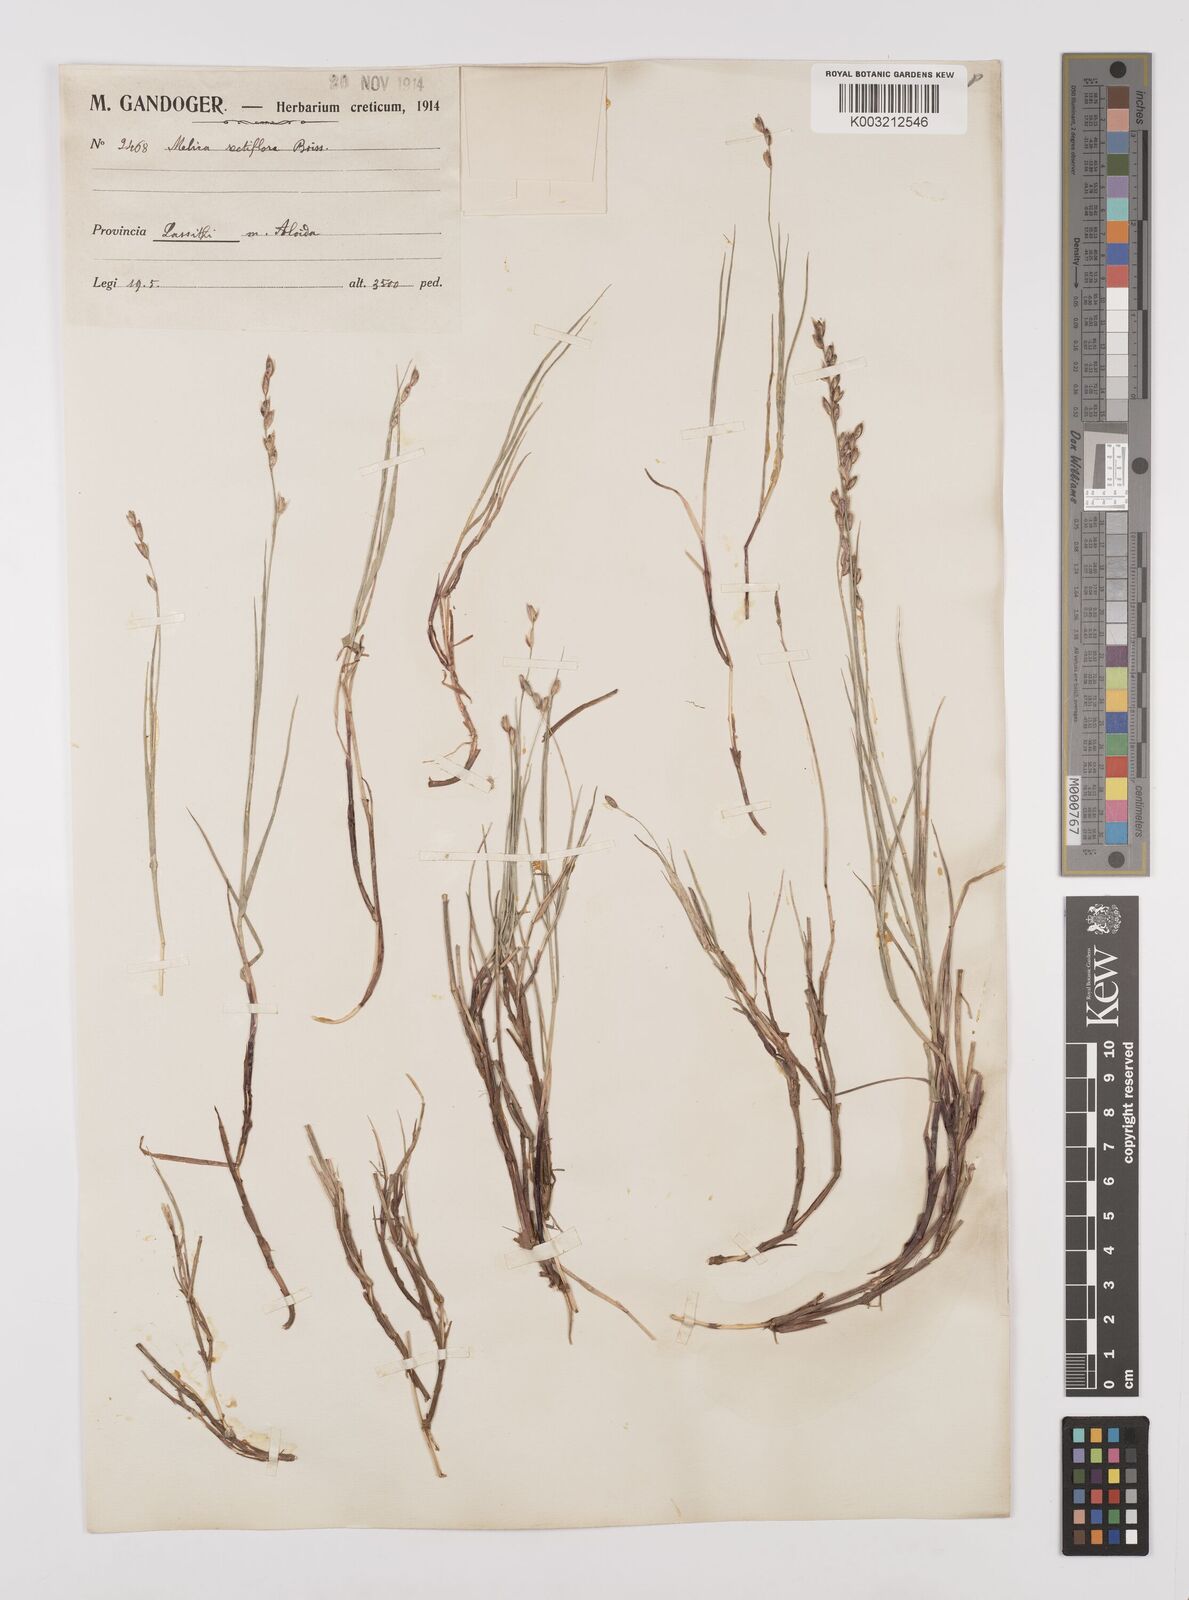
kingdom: Plantae
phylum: Tracheophyta
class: Liliopsida
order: Poales
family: Poaceae
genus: Melica
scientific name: Melica rectiflora
